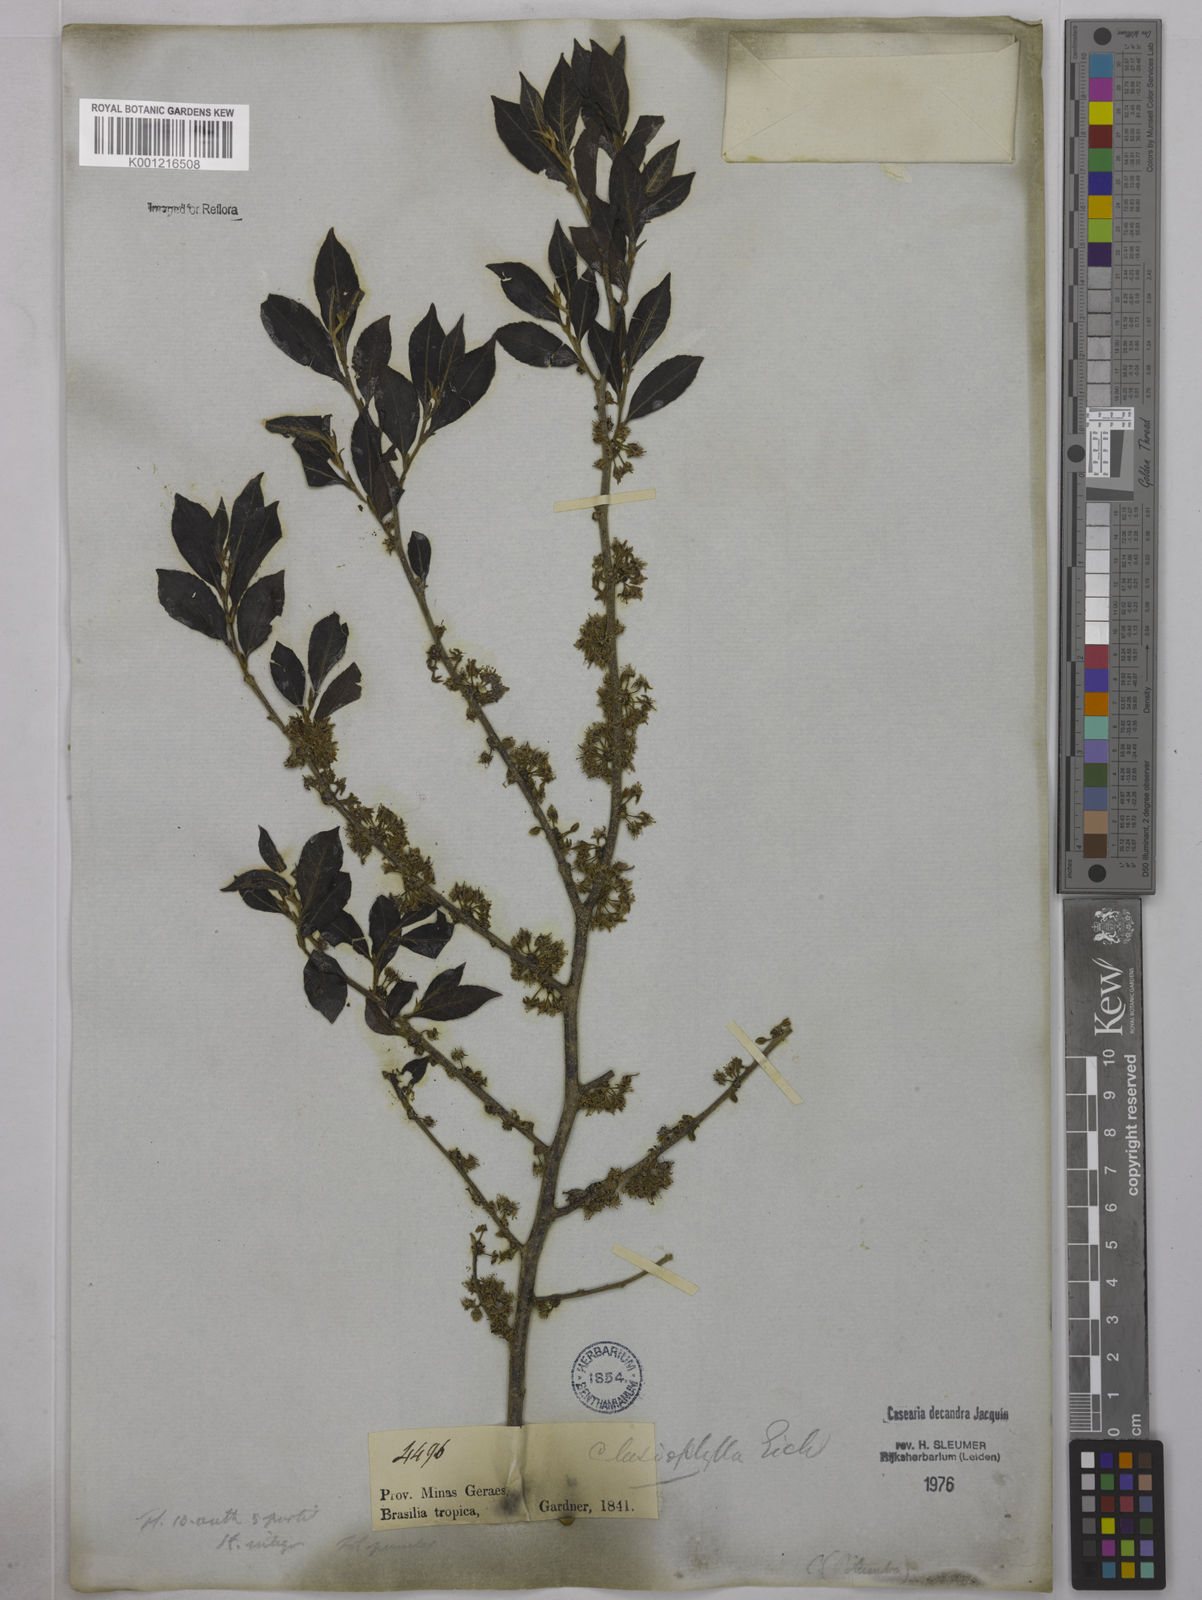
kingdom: Plantae
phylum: Tracheophyta
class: Magnoliopsida
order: Malpighiales
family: Salicaceae
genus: Casearia
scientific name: Casearia decandra
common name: Crack open
